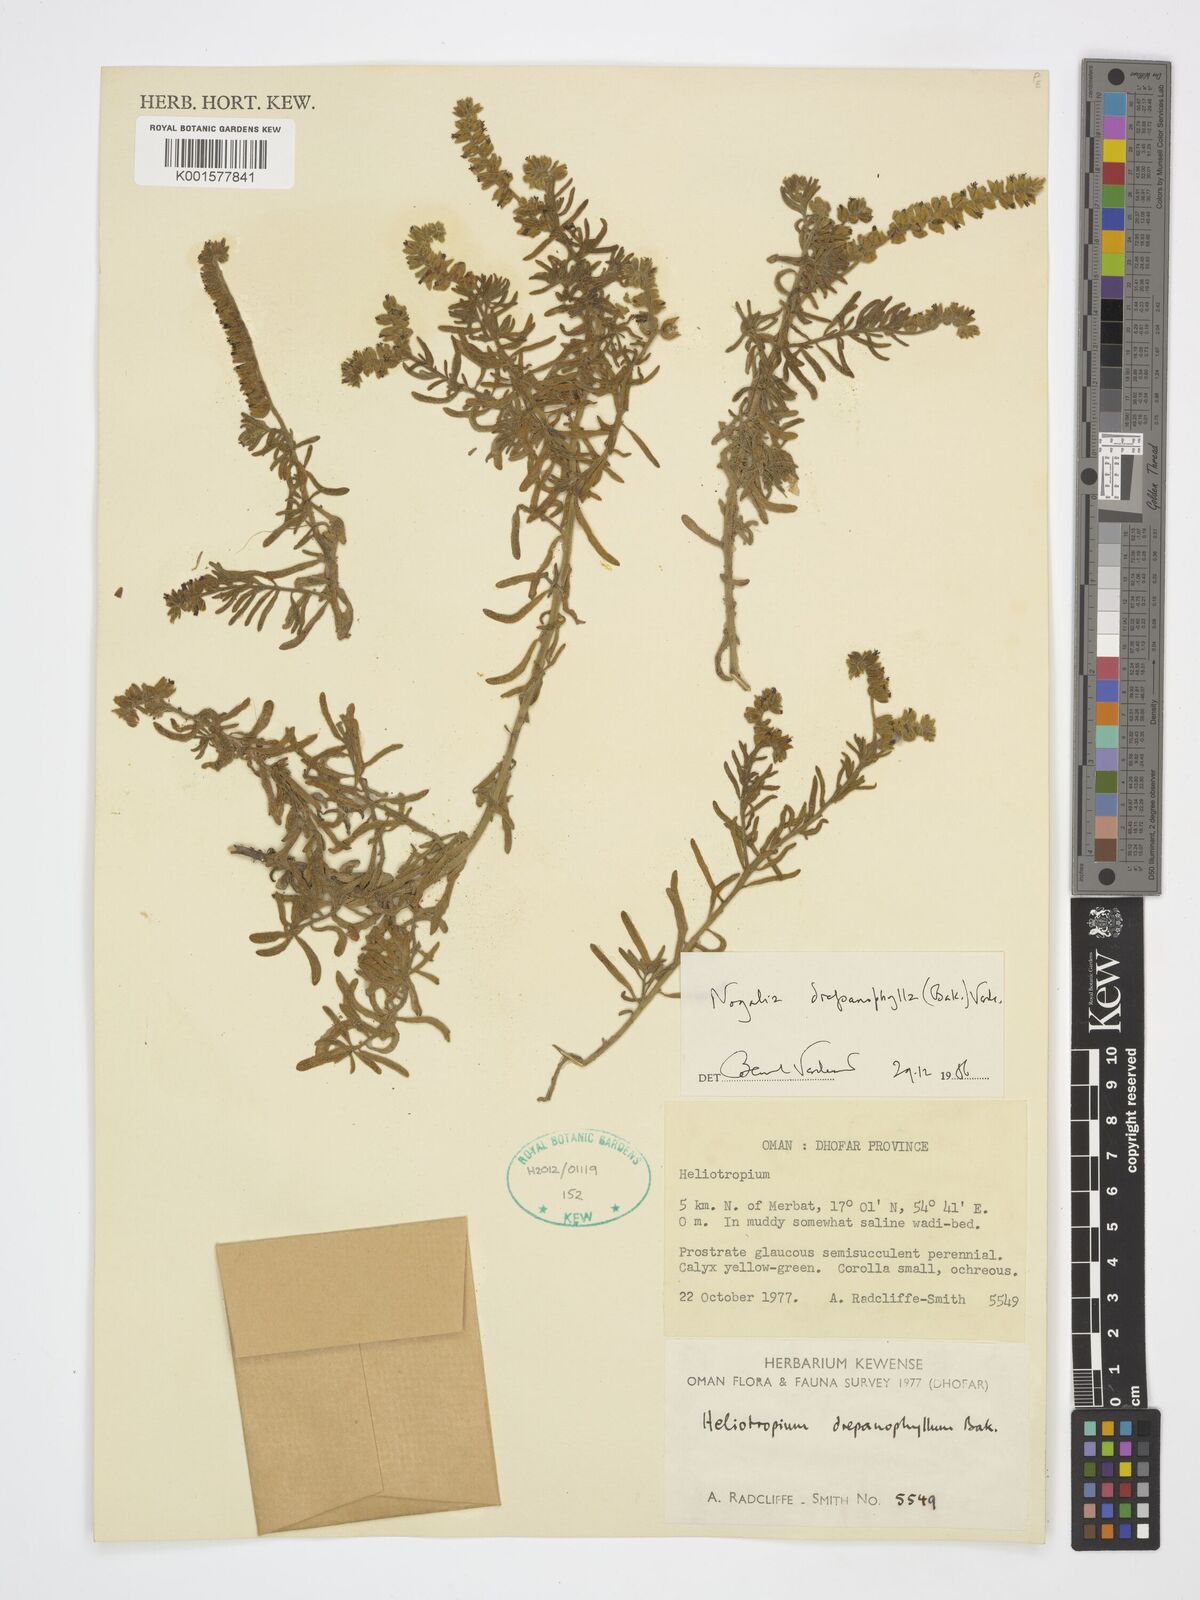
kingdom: Plantae
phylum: Tracheophyta
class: Magnoliopsida
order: Boraginales
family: Heliotropiaceae
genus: Heliotropium
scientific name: Heliotropium drepanophyllum
